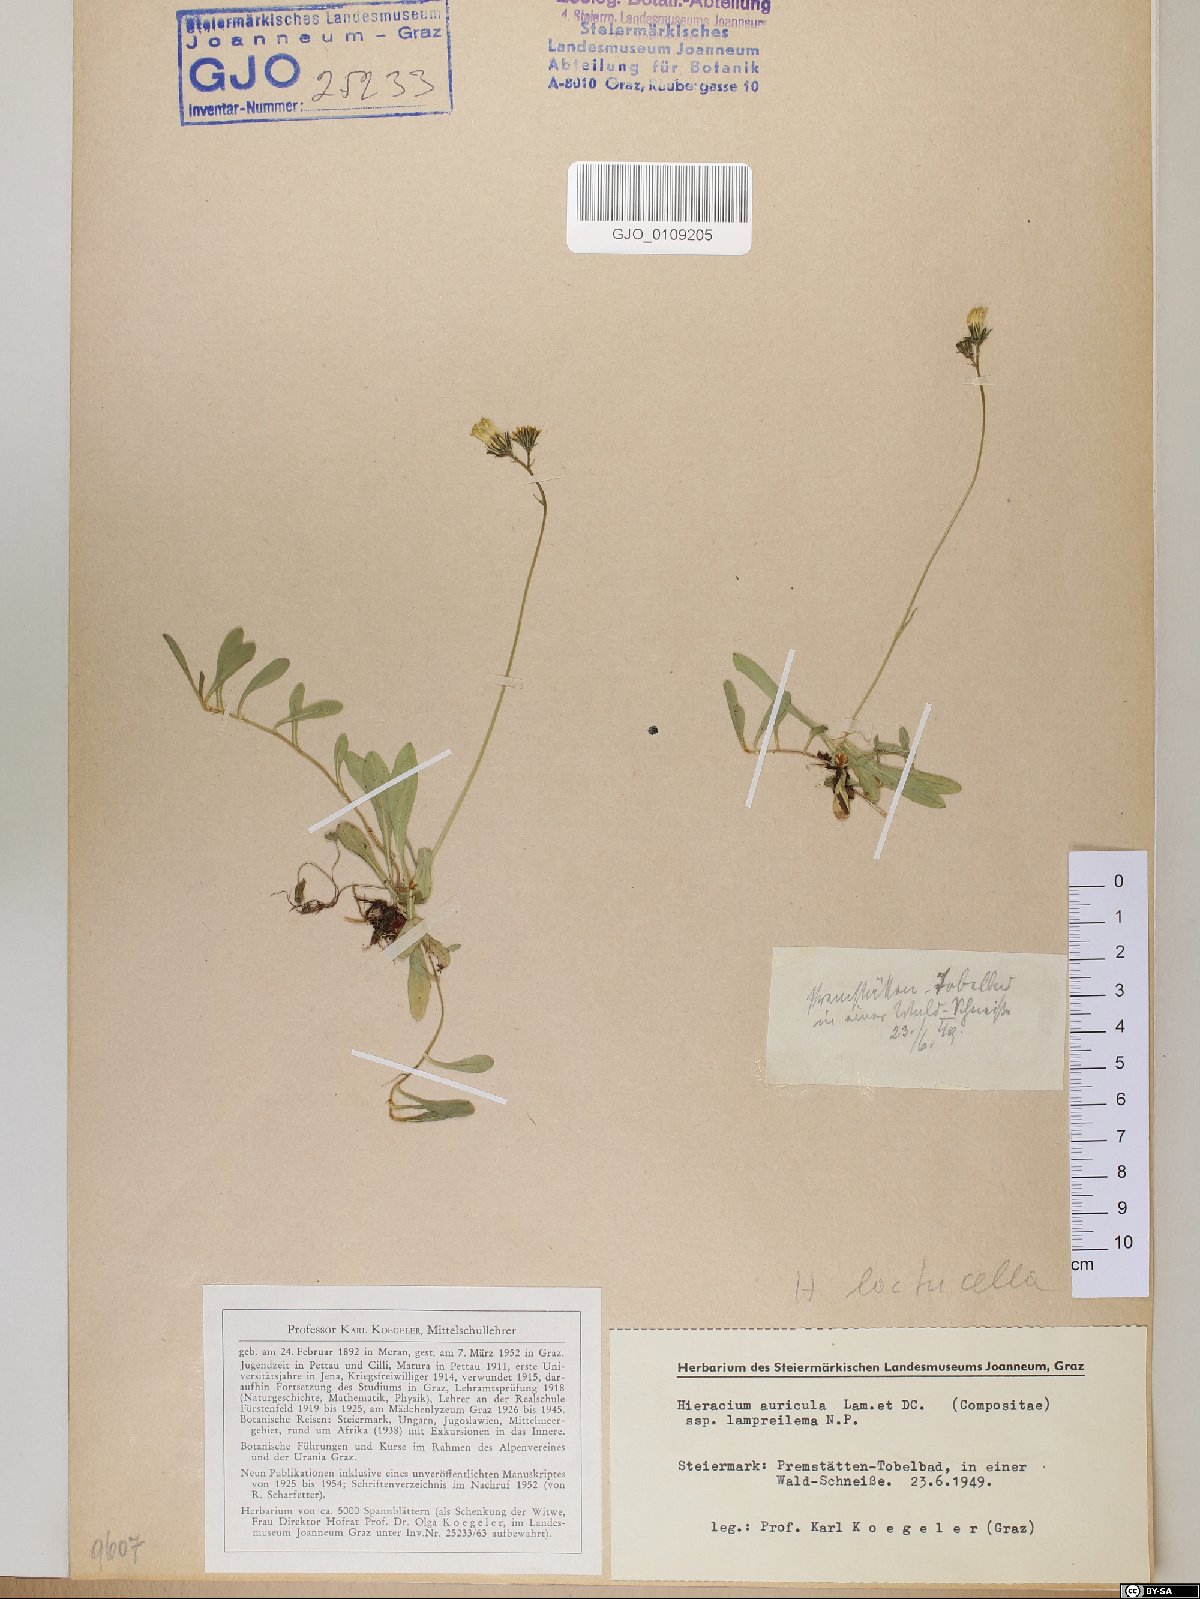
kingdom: Plantae
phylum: Tracheophyta
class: Magnoliopsida
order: Asterales
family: Asteraceae
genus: Hieracium
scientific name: Hieracium auricula
